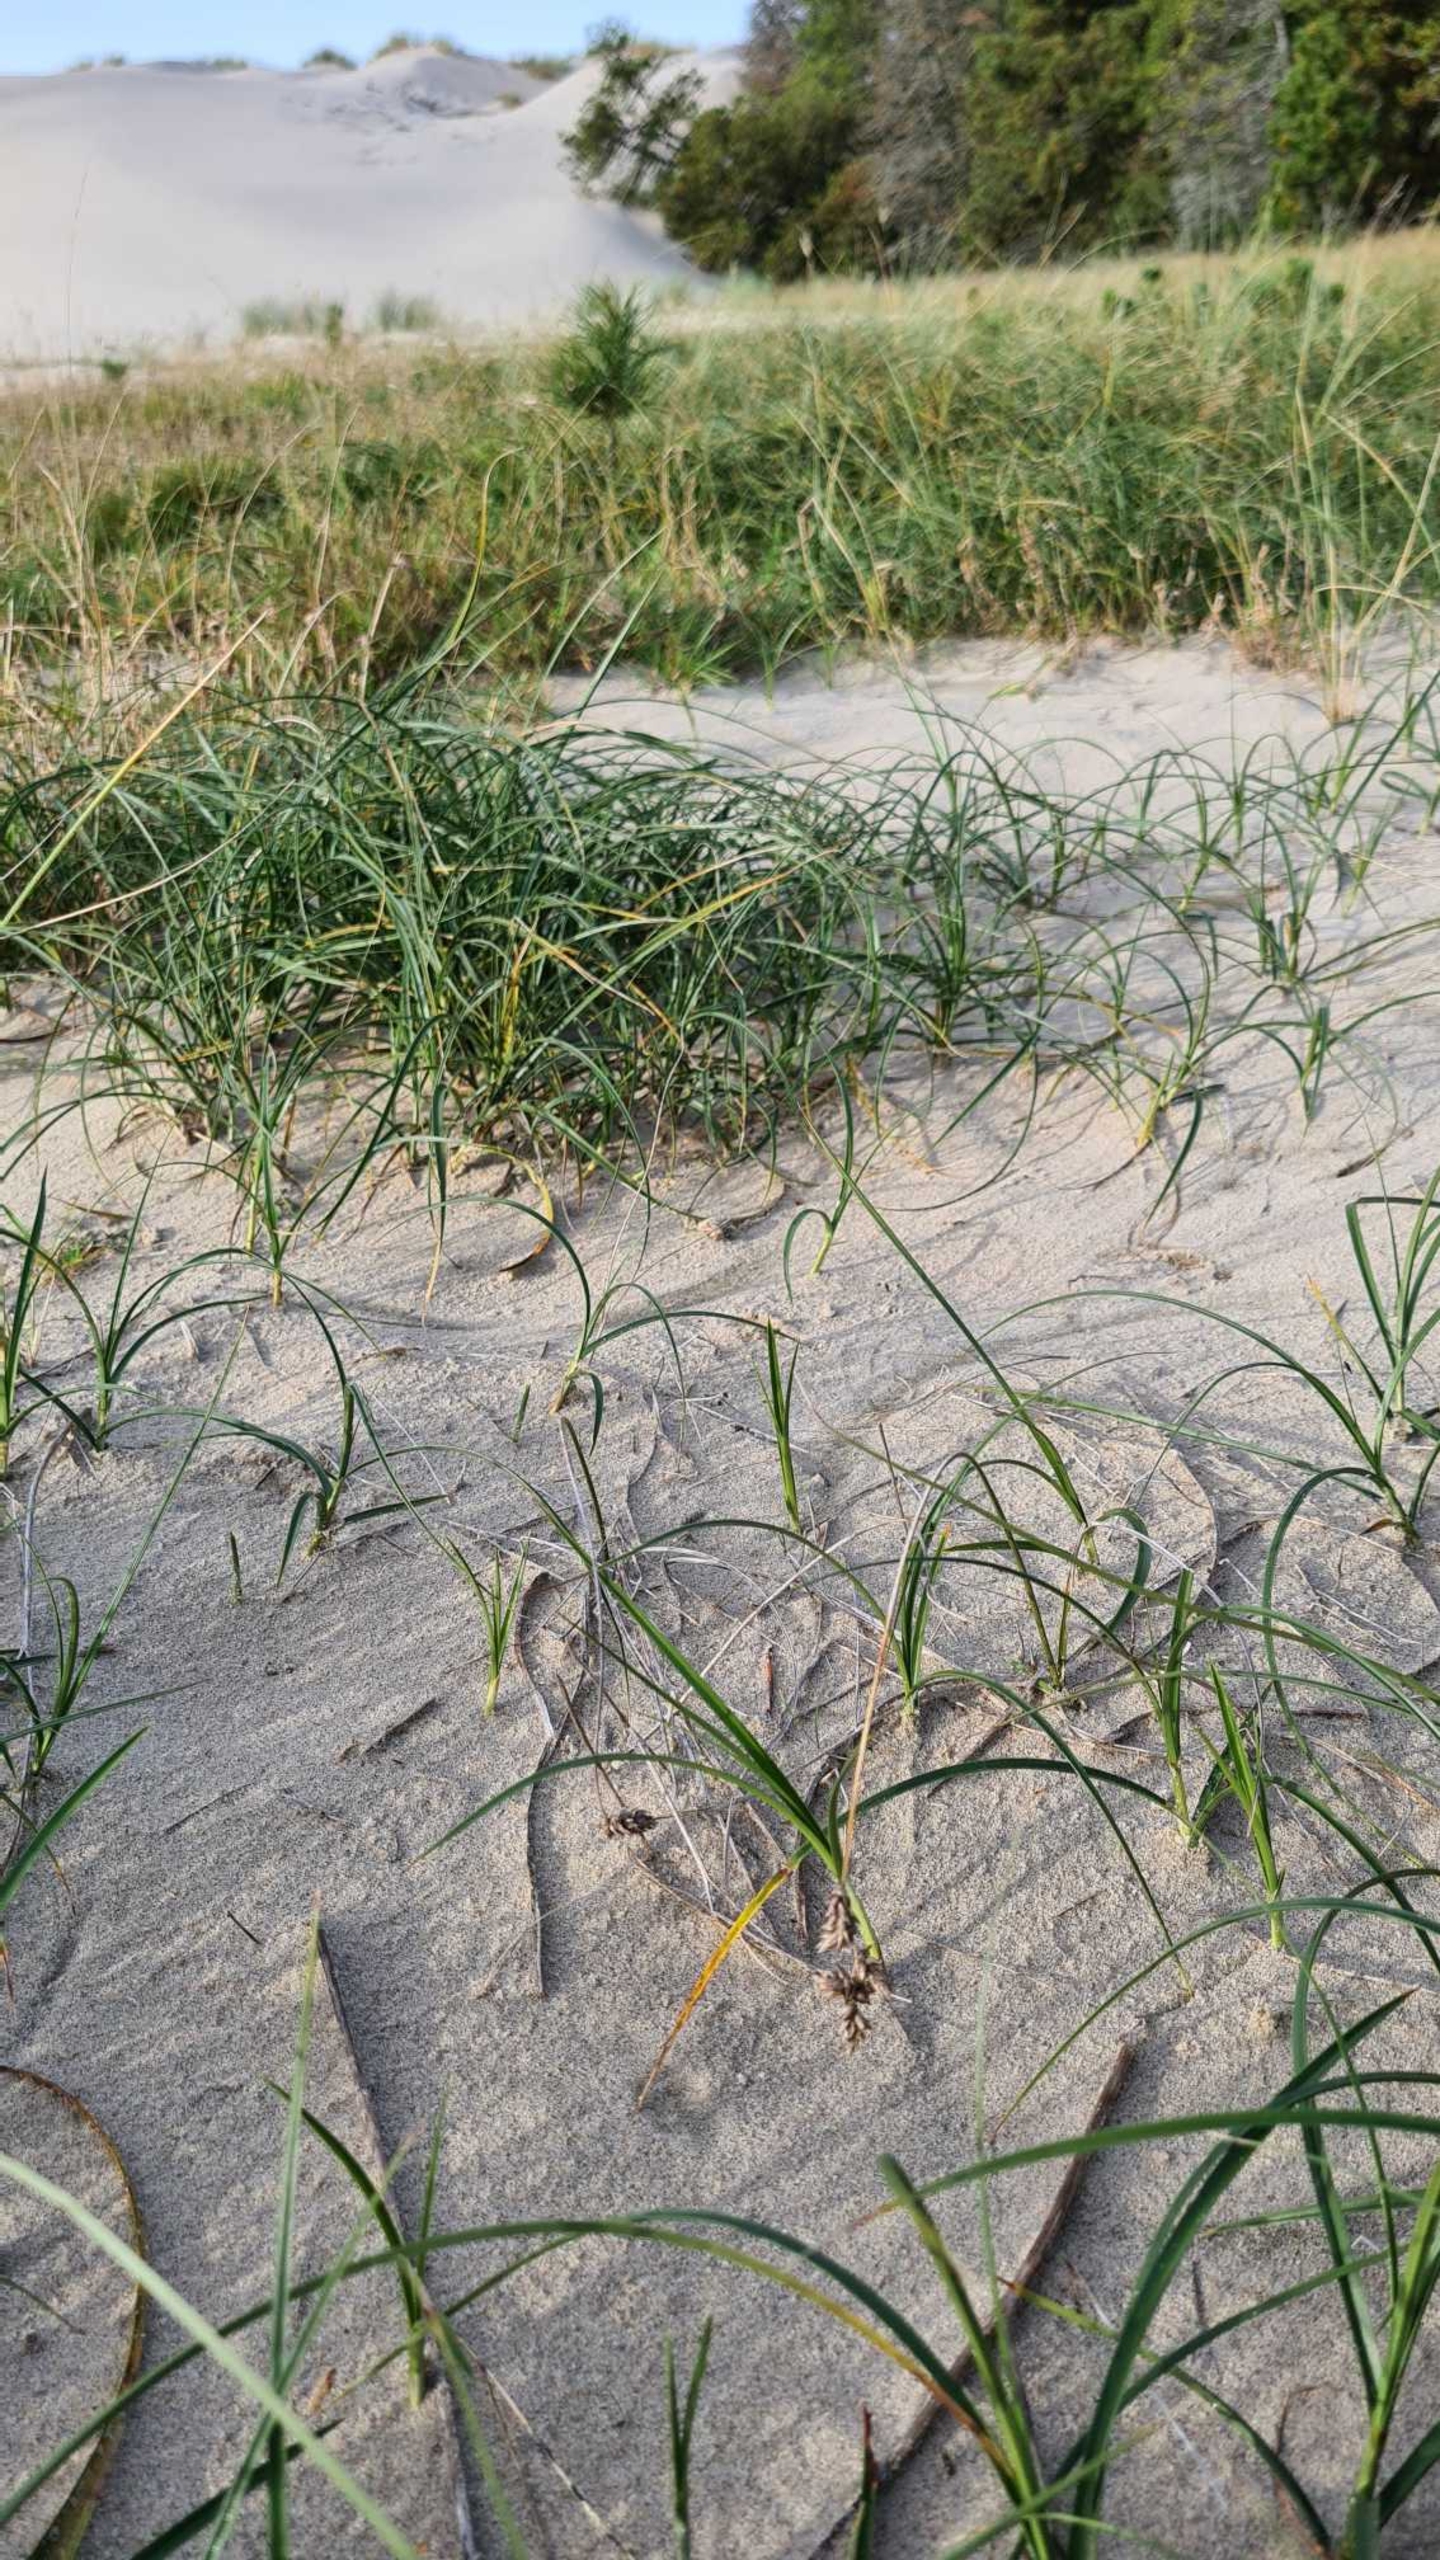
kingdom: Plantae
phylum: Tracheophyta
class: Liliopsida
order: Poales
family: Cyperaceae
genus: Carex
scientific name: Carex arenaria
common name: Sand-star
